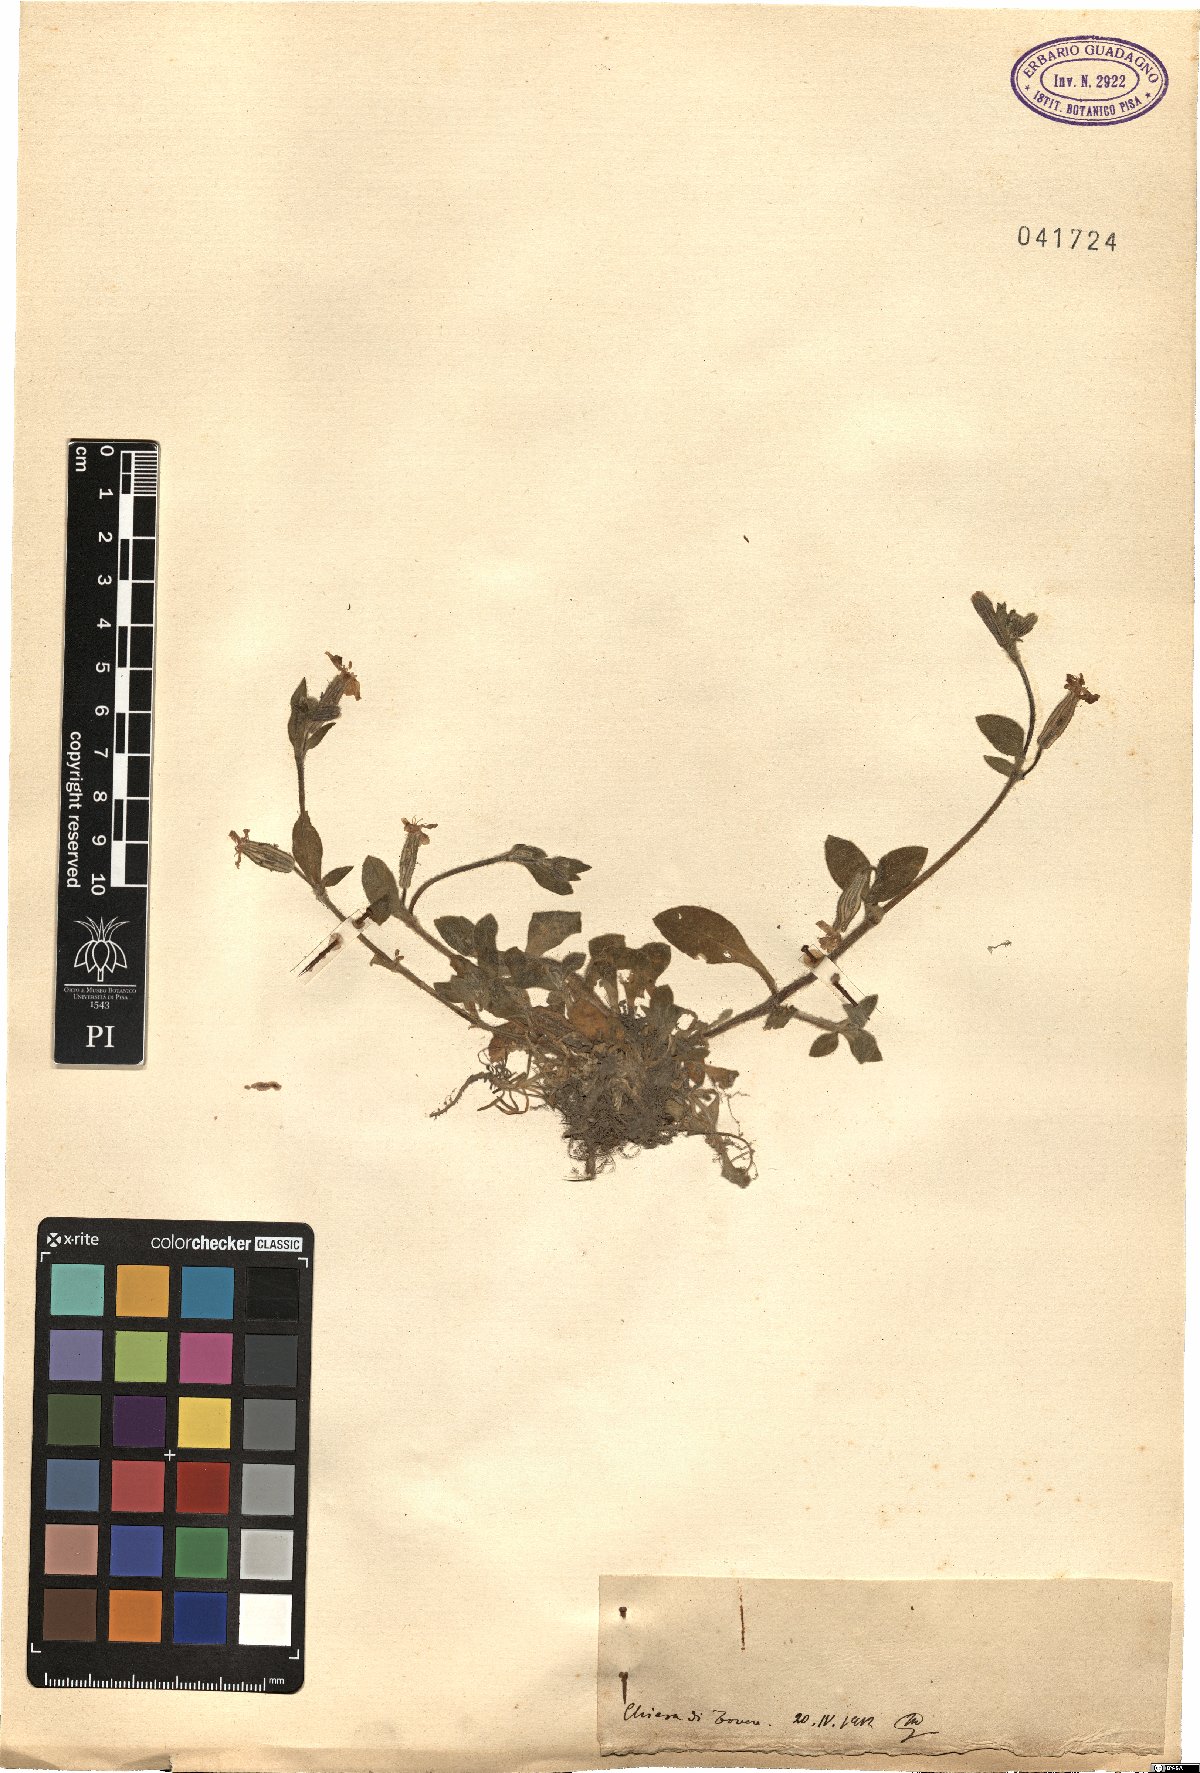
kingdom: Plantae
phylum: Tracheophyta
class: Magnoliopsida
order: Caryophyllales
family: Caryophyllaceae
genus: Silene
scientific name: Silene
